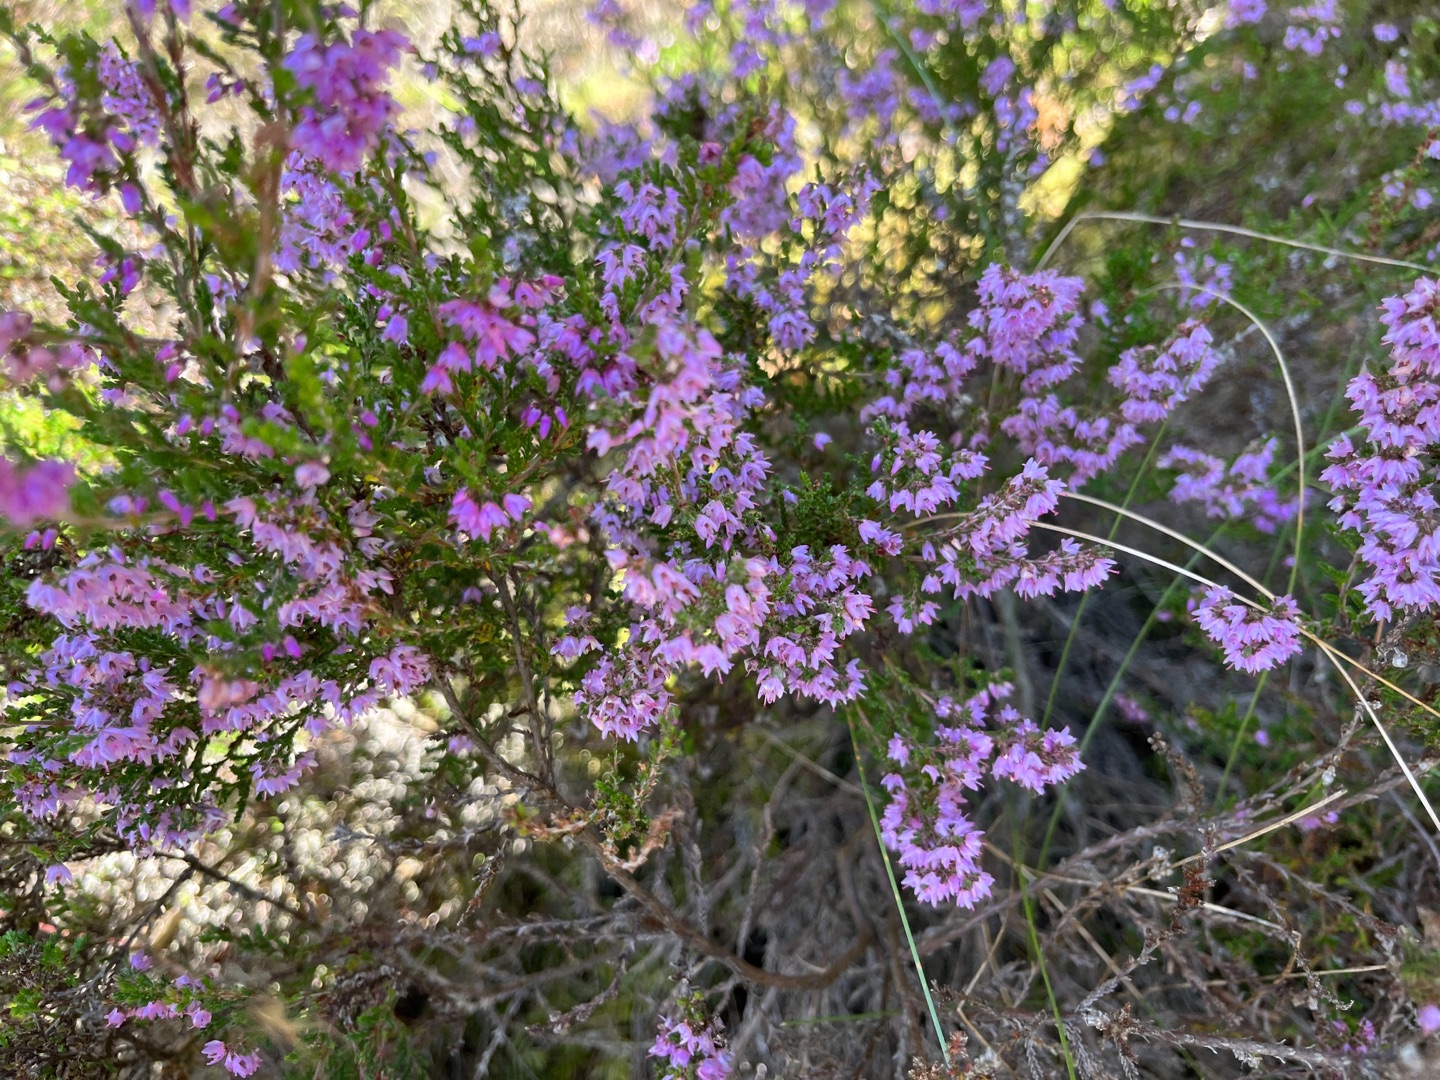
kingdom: Plantae
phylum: Tracheophyta
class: Magnoliopsida
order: Ericales
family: Ericaceae
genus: Calluna
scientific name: Calluna vulgaris
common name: Hedelyng
